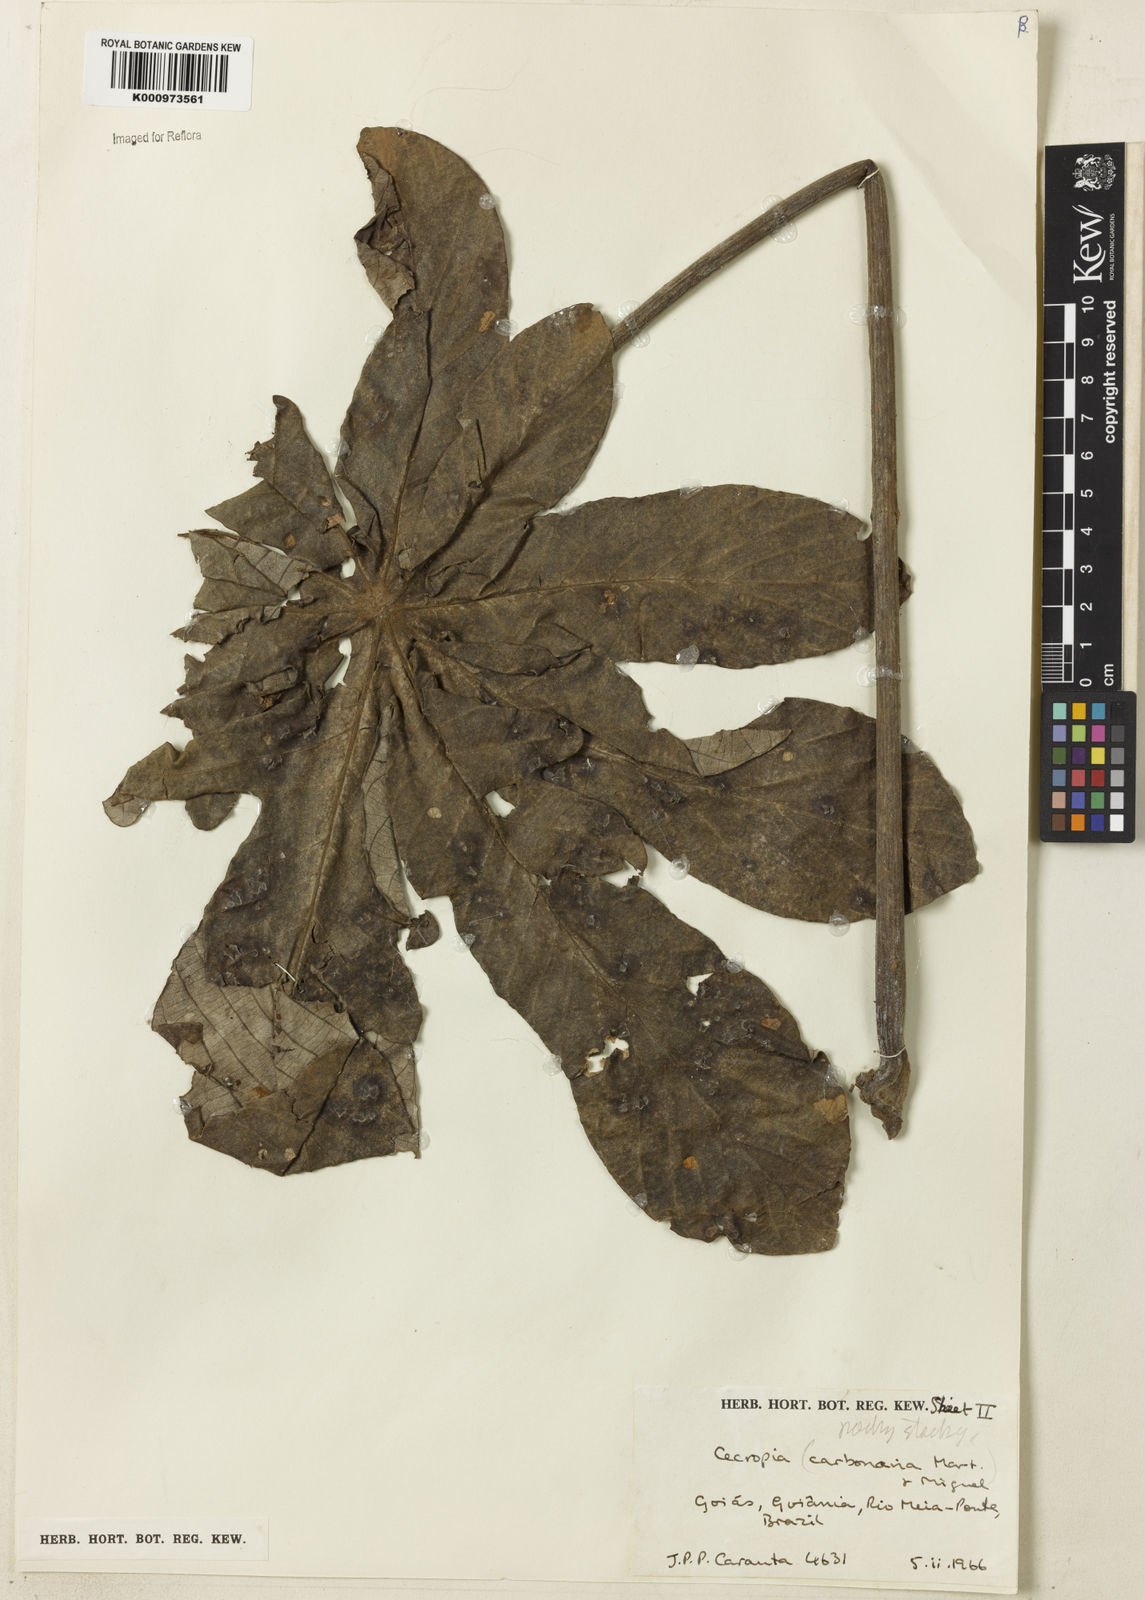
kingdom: Plantae
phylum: Tracheophyta
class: Magnoliopsida
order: Rosales
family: Urticaceae
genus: Cecropia
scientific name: Cecropia
